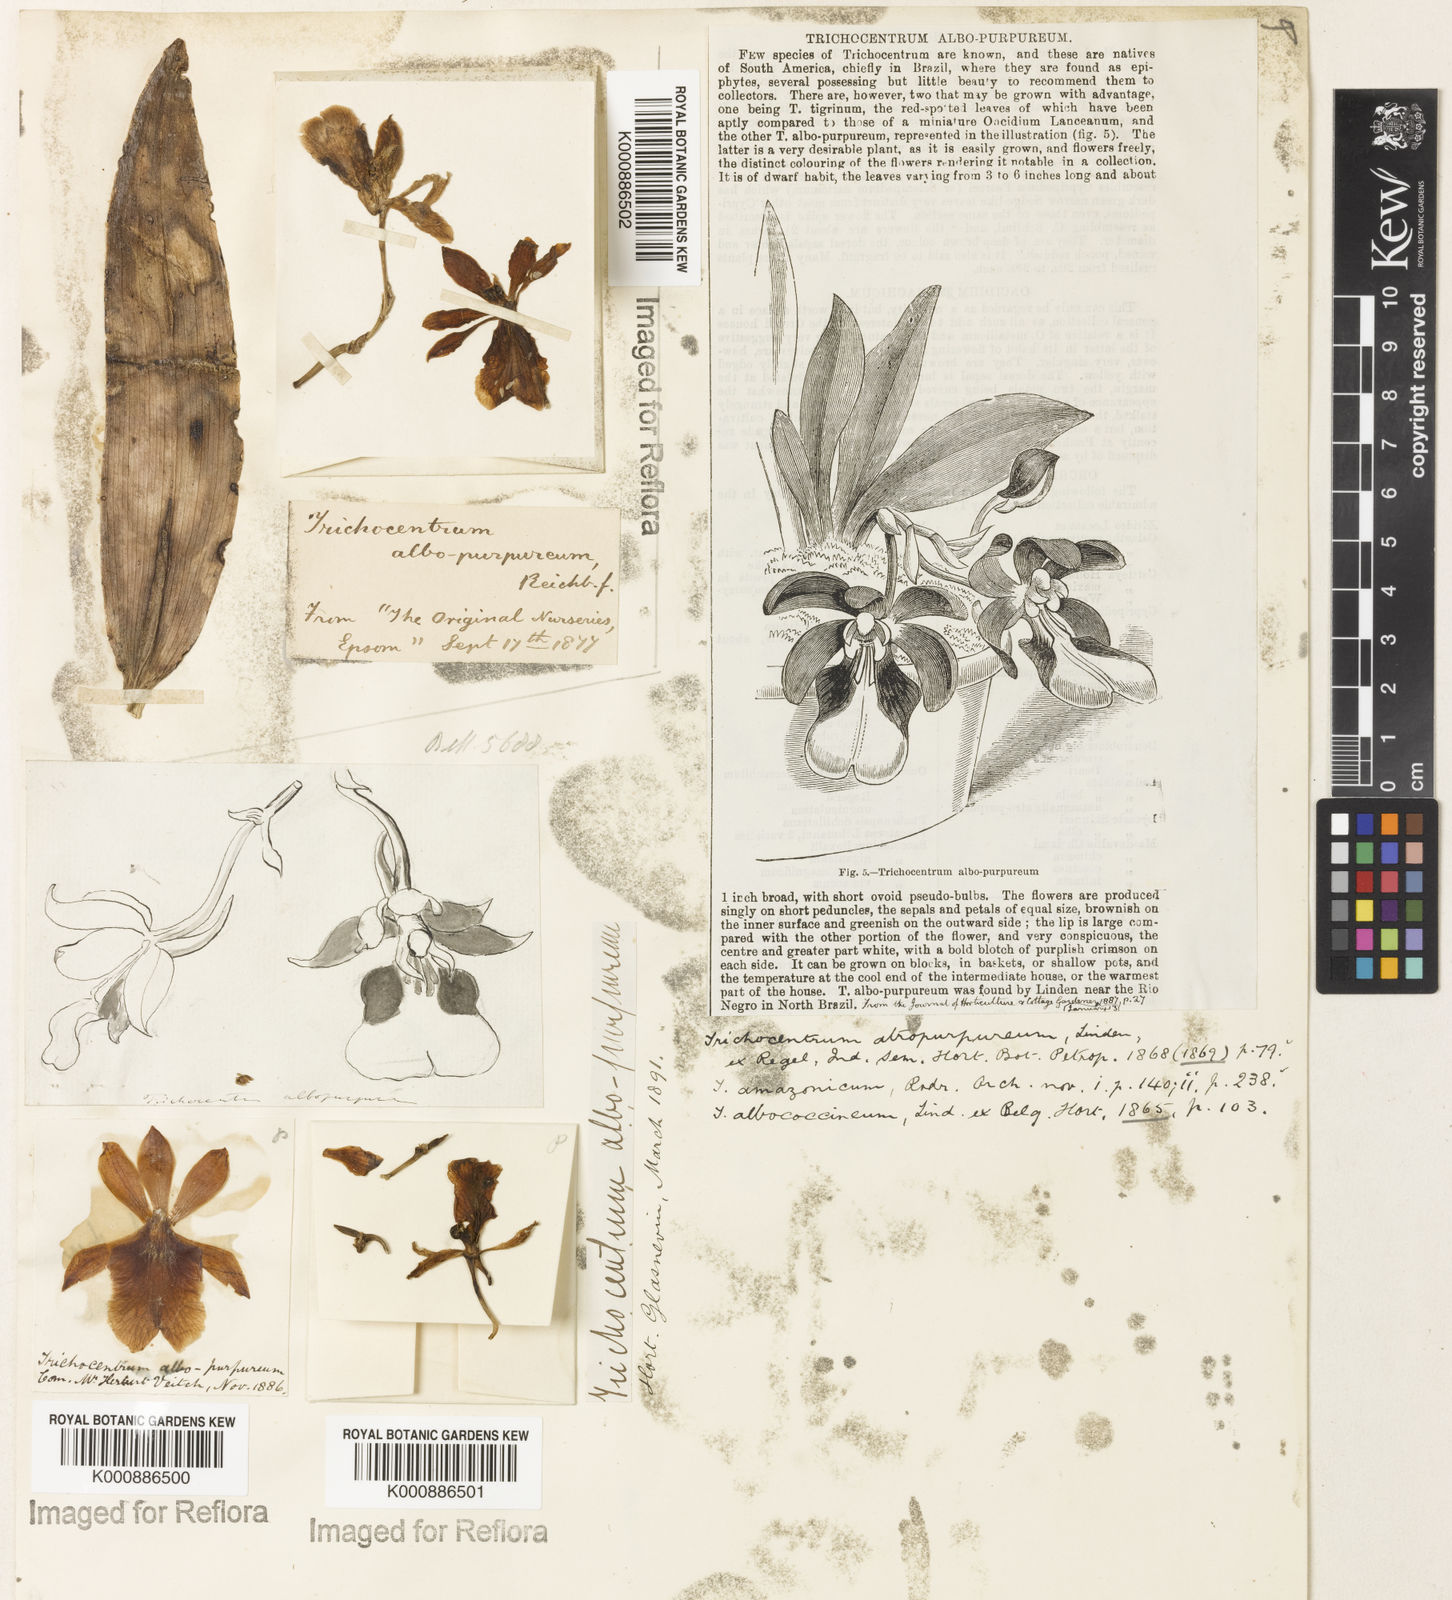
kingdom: Plantae
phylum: Tracheophyta
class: Liliopsida
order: Asparagales
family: Orchidaceae
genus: Trichocentrum
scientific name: Trichocentrum
